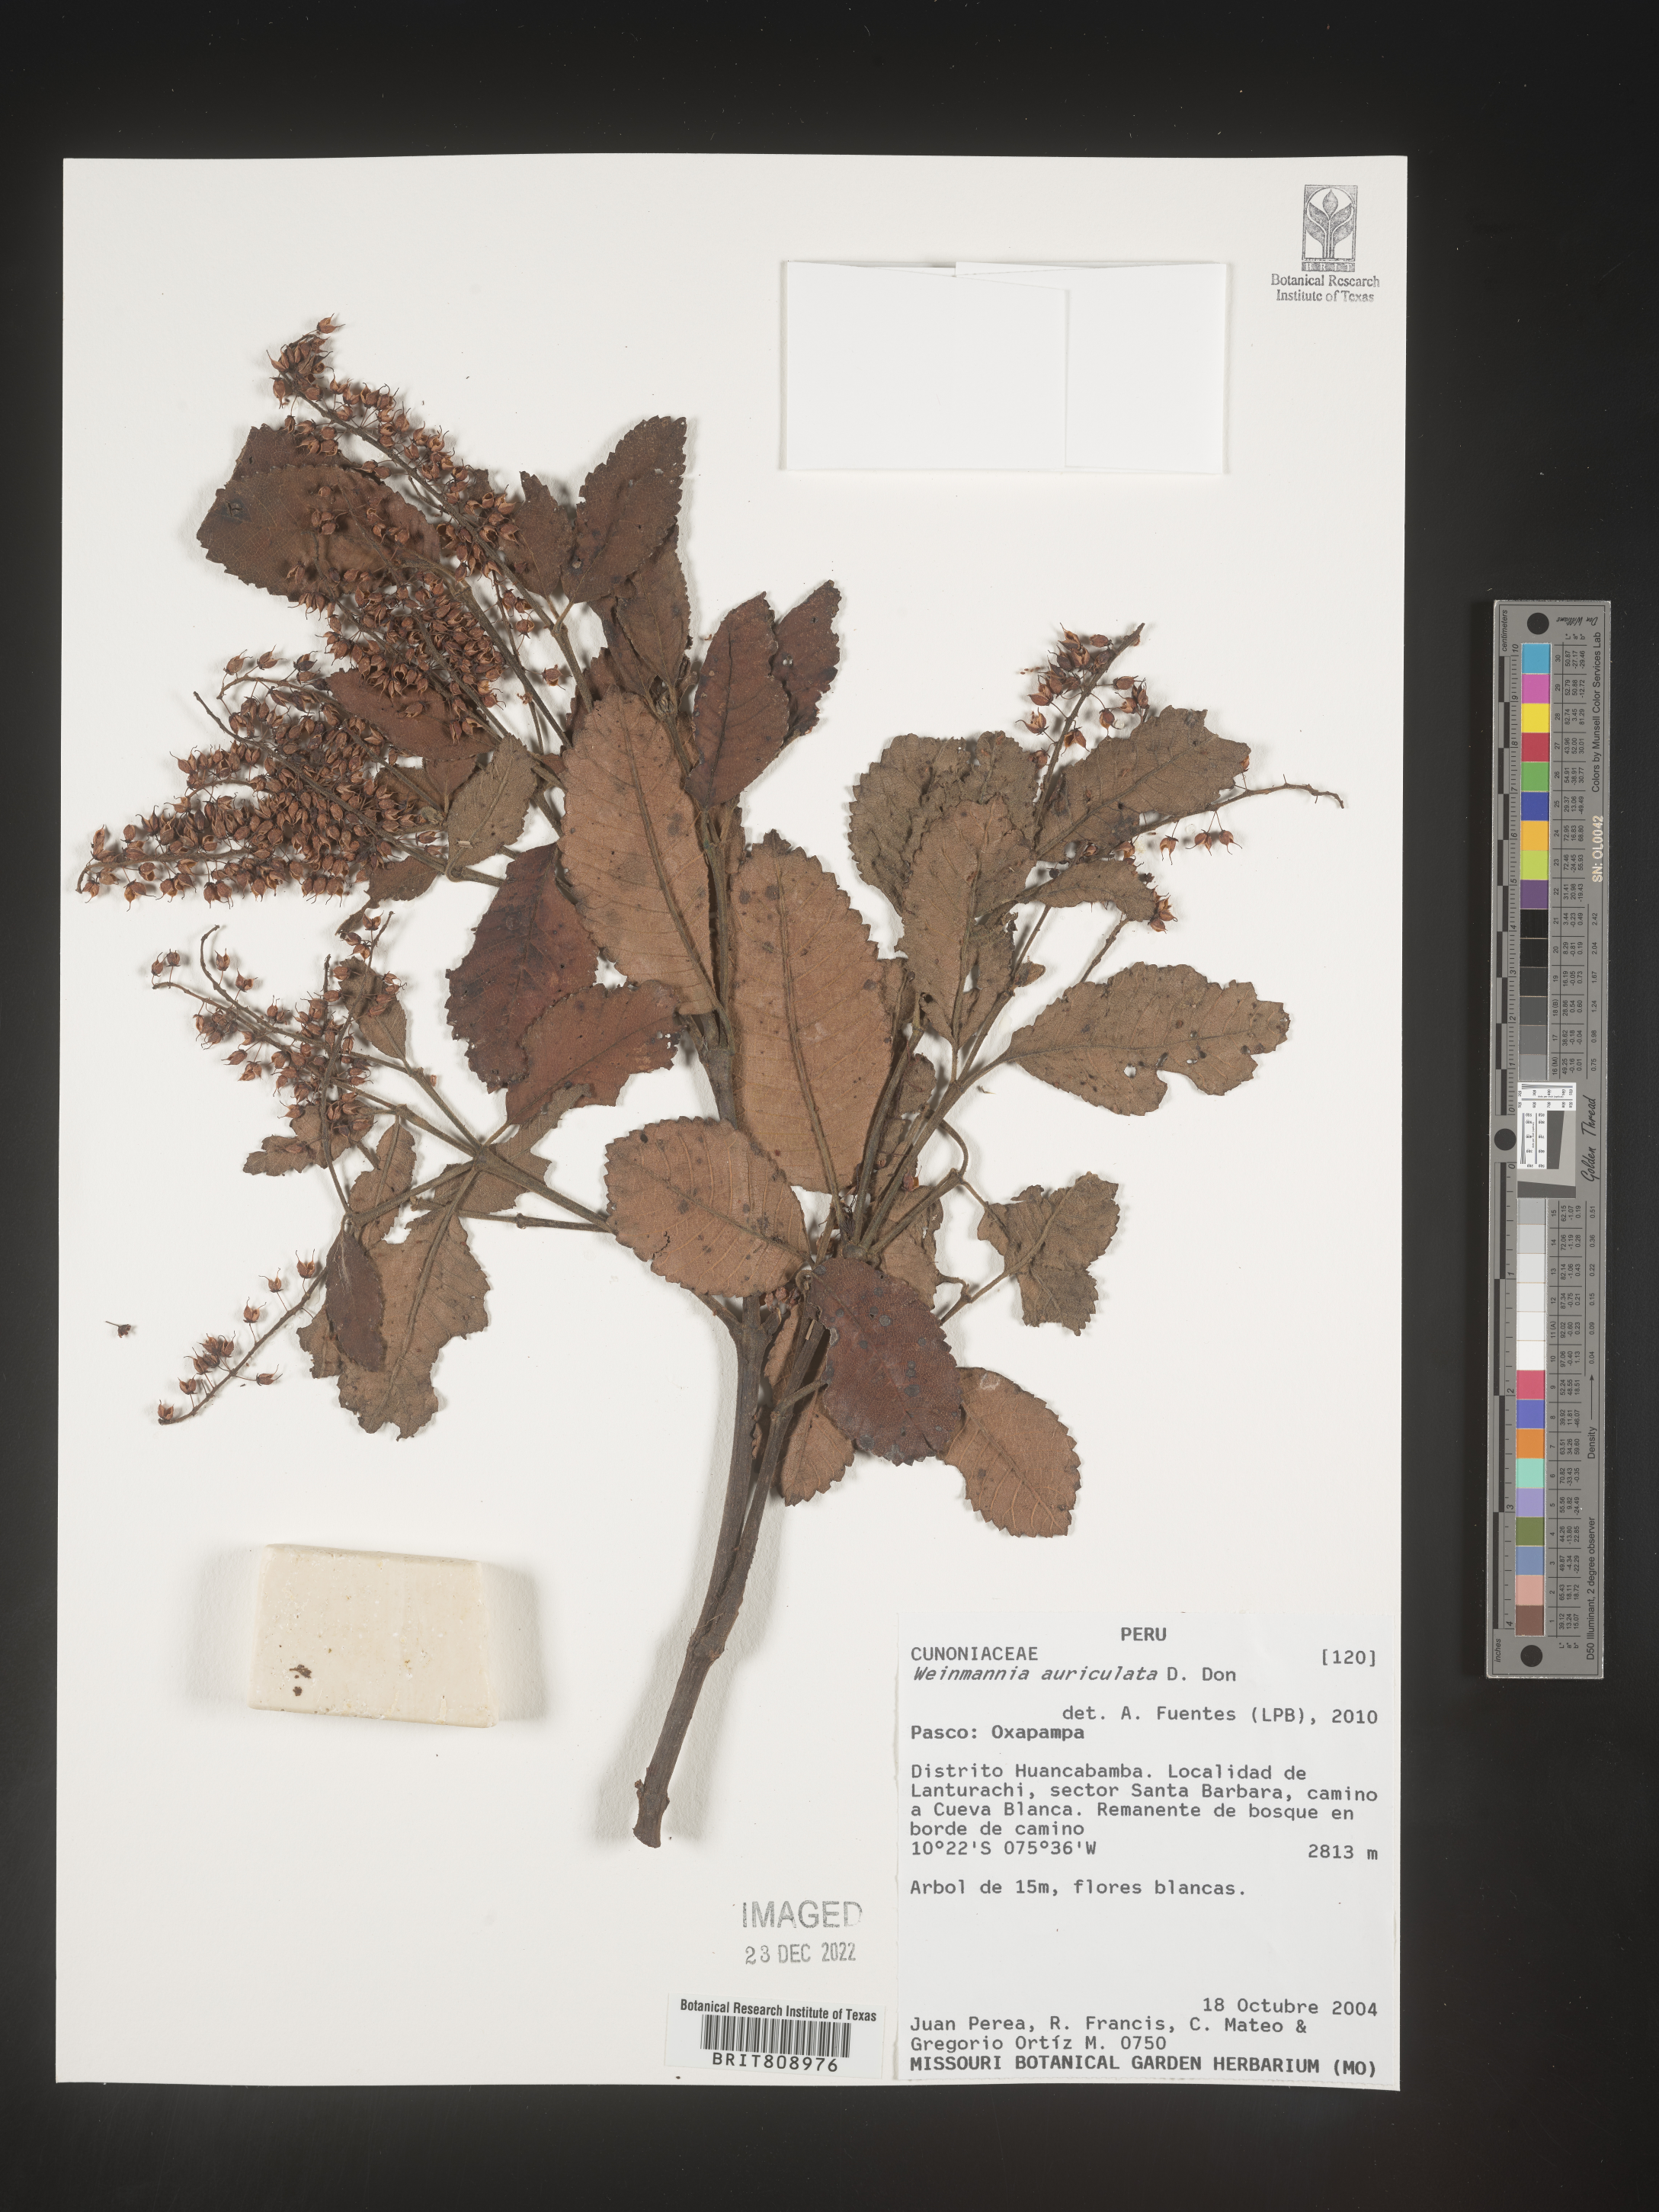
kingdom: Plantae
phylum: Tracheophyta
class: Magnoliopsida
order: Oxalidales
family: Cunoniaceae
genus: Weinmannia
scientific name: Weinmannia
